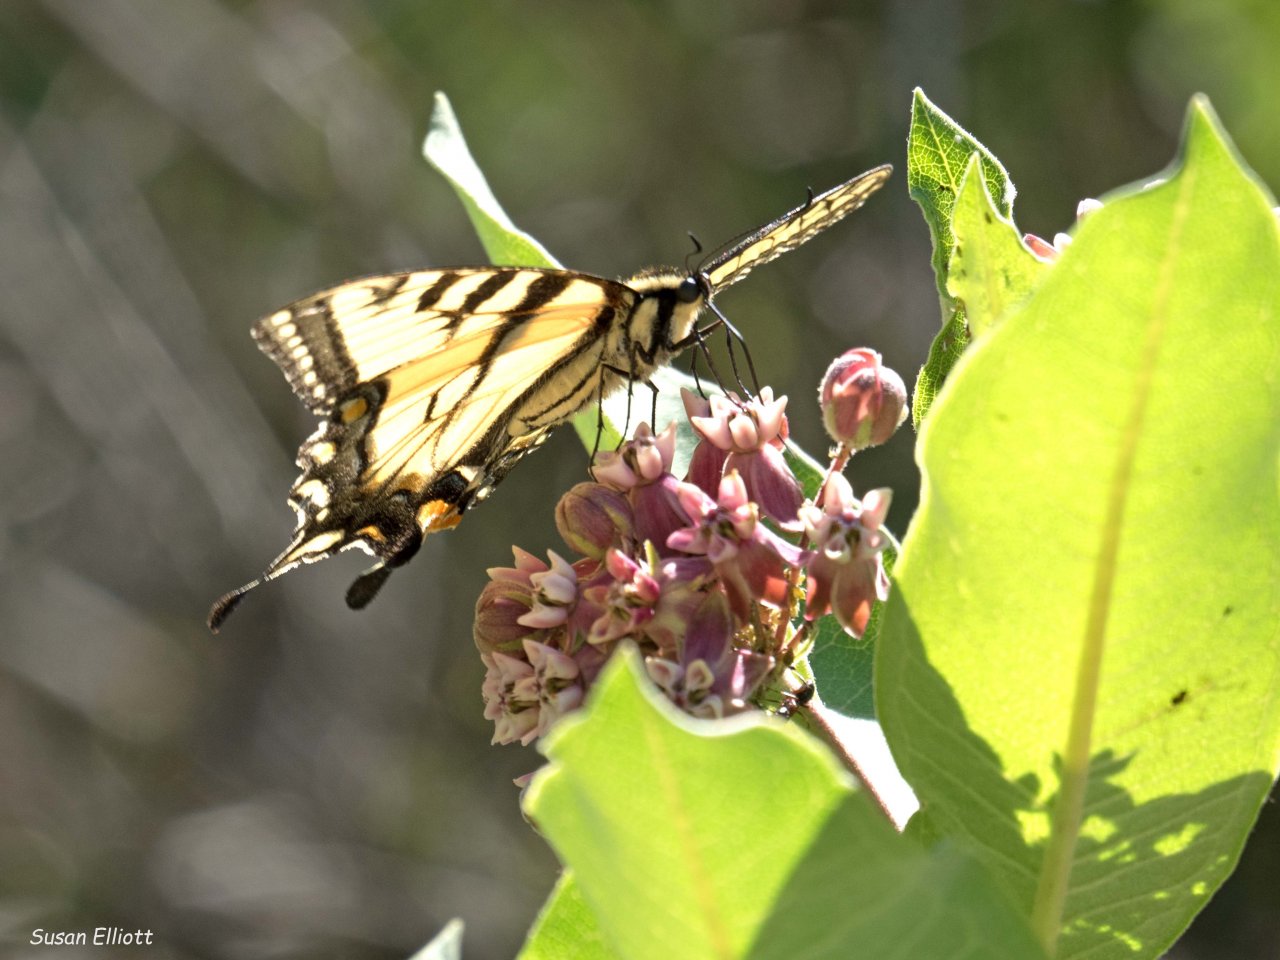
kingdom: Animalia
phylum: Arthropoda
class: Insecta
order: Lepidoptera
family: Papilionidae
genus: Pterourus
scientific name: Pterourus glaucus
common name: Eastern Tiger Swallowtail
